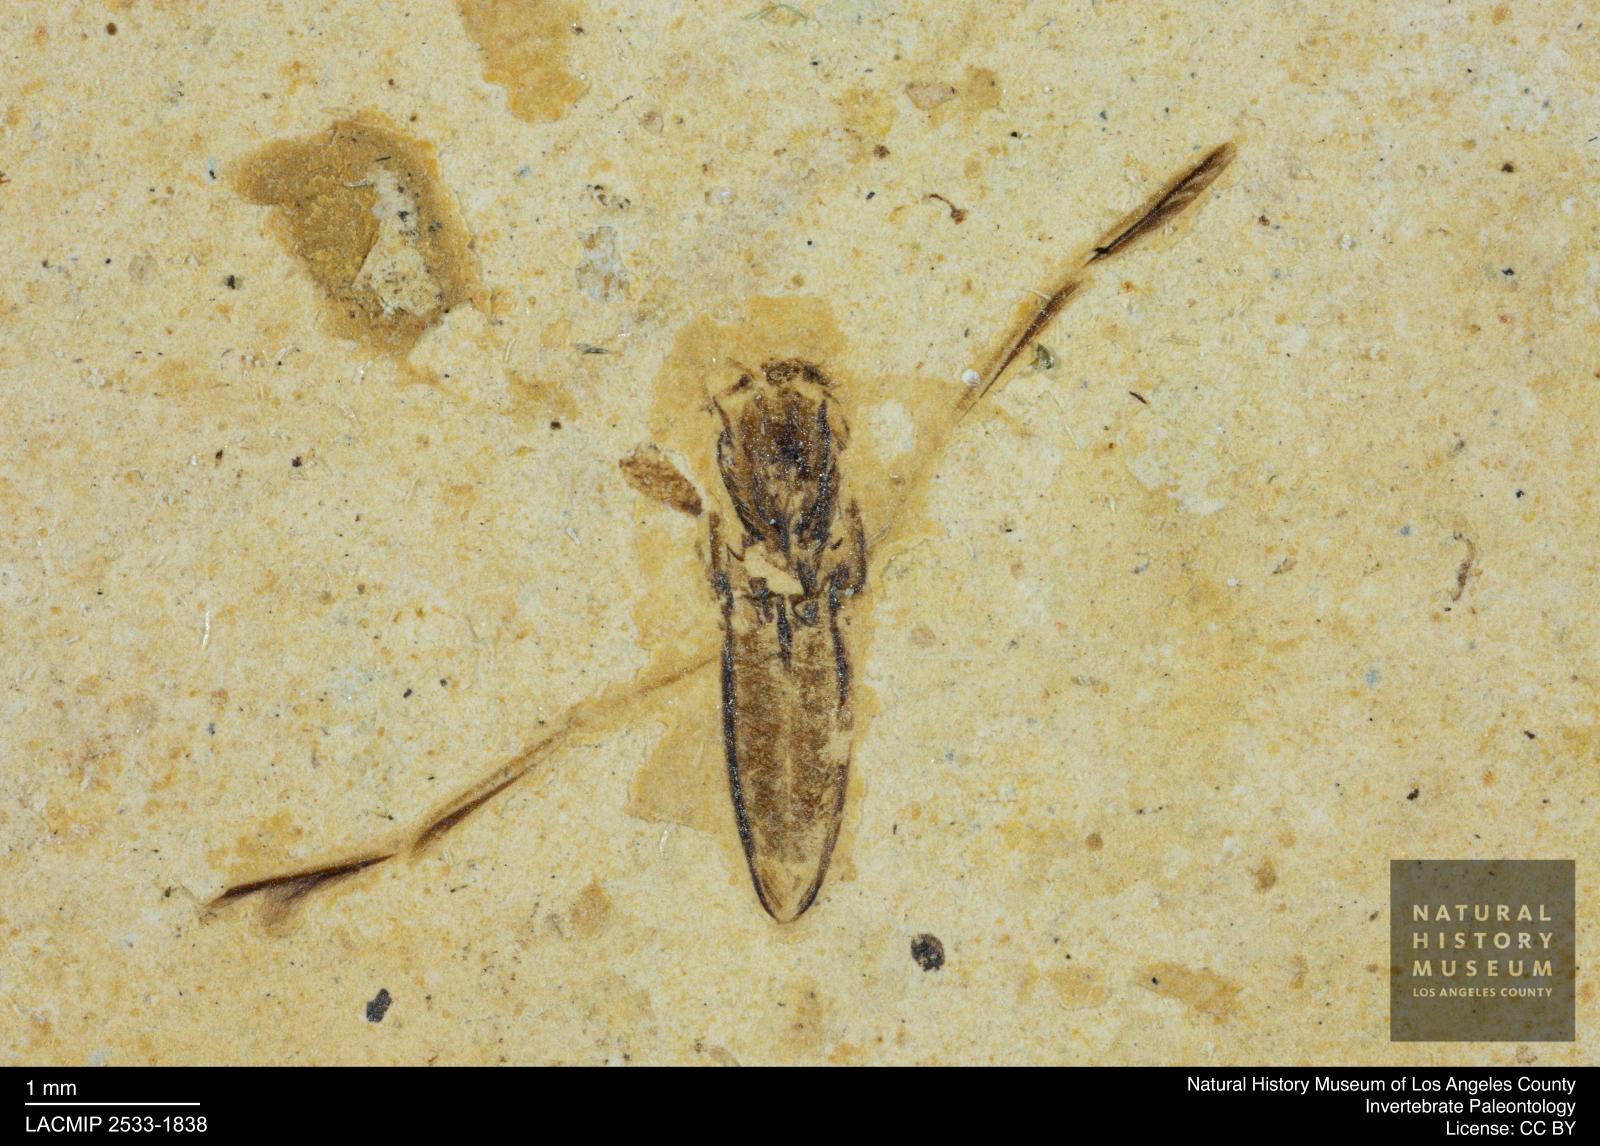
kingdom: Animalia
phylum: Arthropoda
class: Insecta
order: Hemiptera
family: Notonectidae
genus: Notonecta
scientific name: Notonecta
